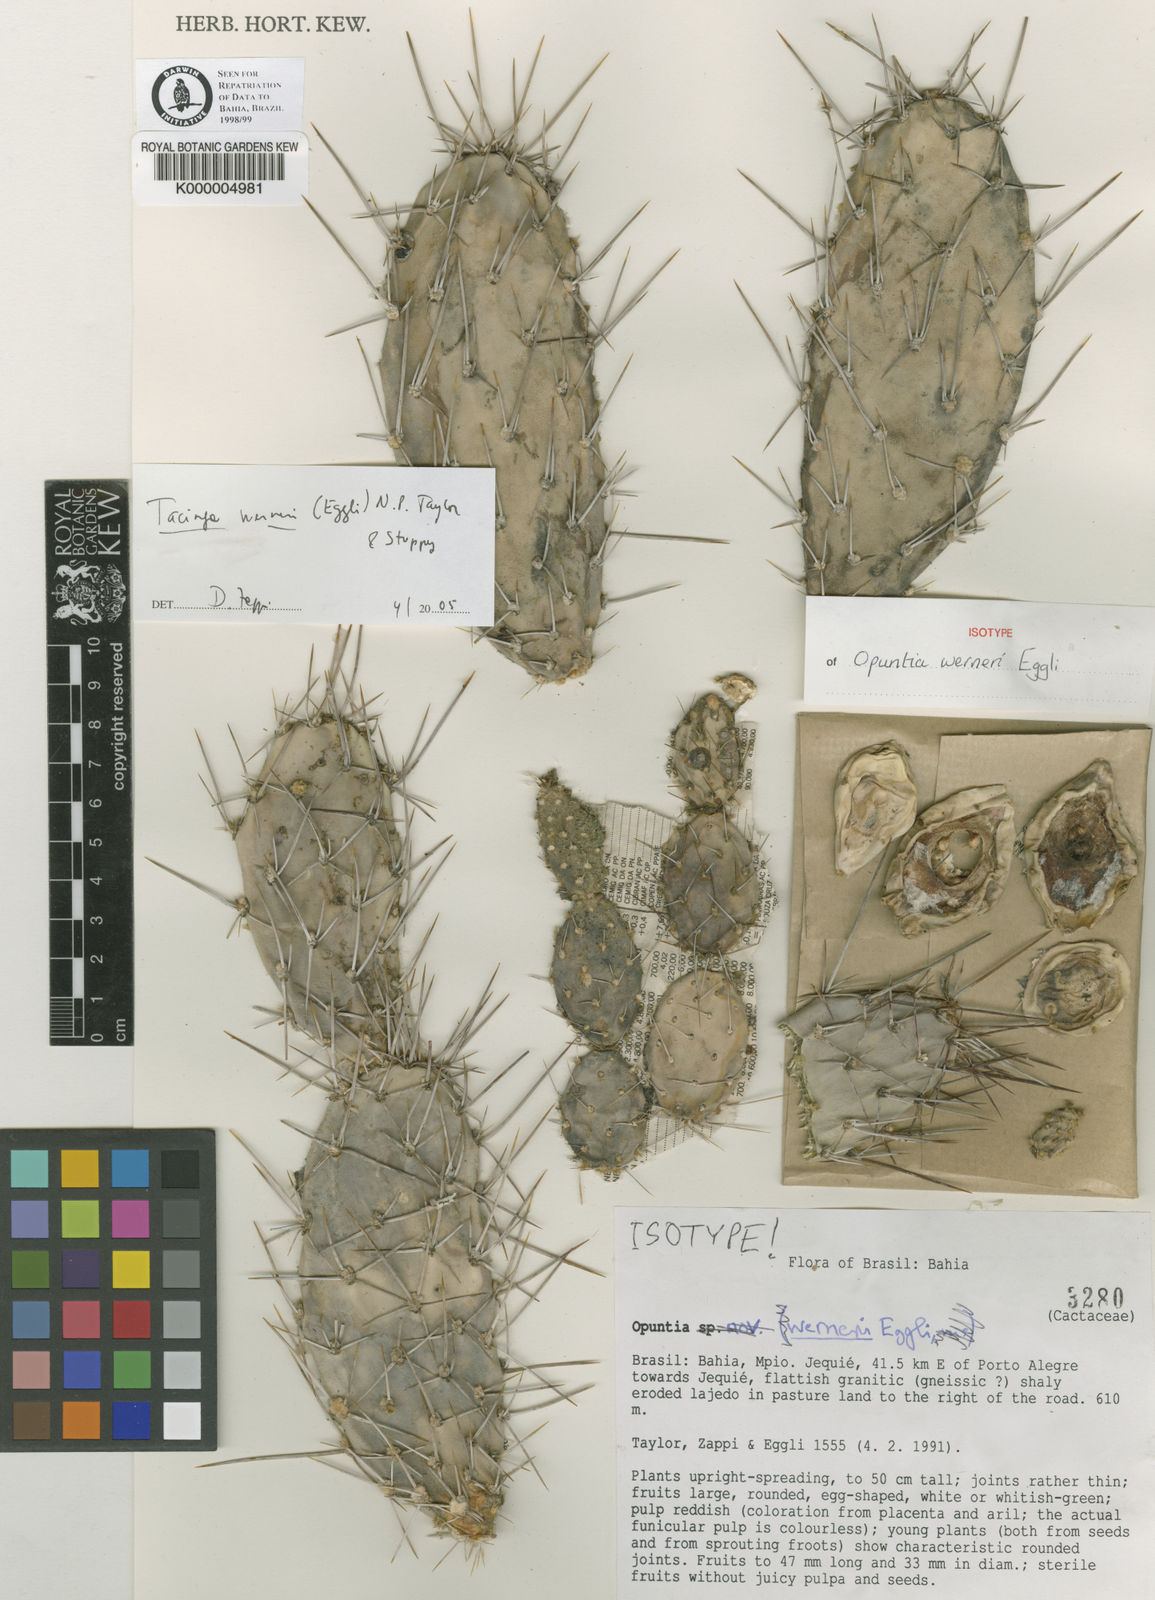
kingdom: Plantae
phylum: Tracheophyta
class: Magnoliopsida
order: Caryophyllales
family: Cactaceae
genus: Tacinga
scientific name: Tacinga werneri
